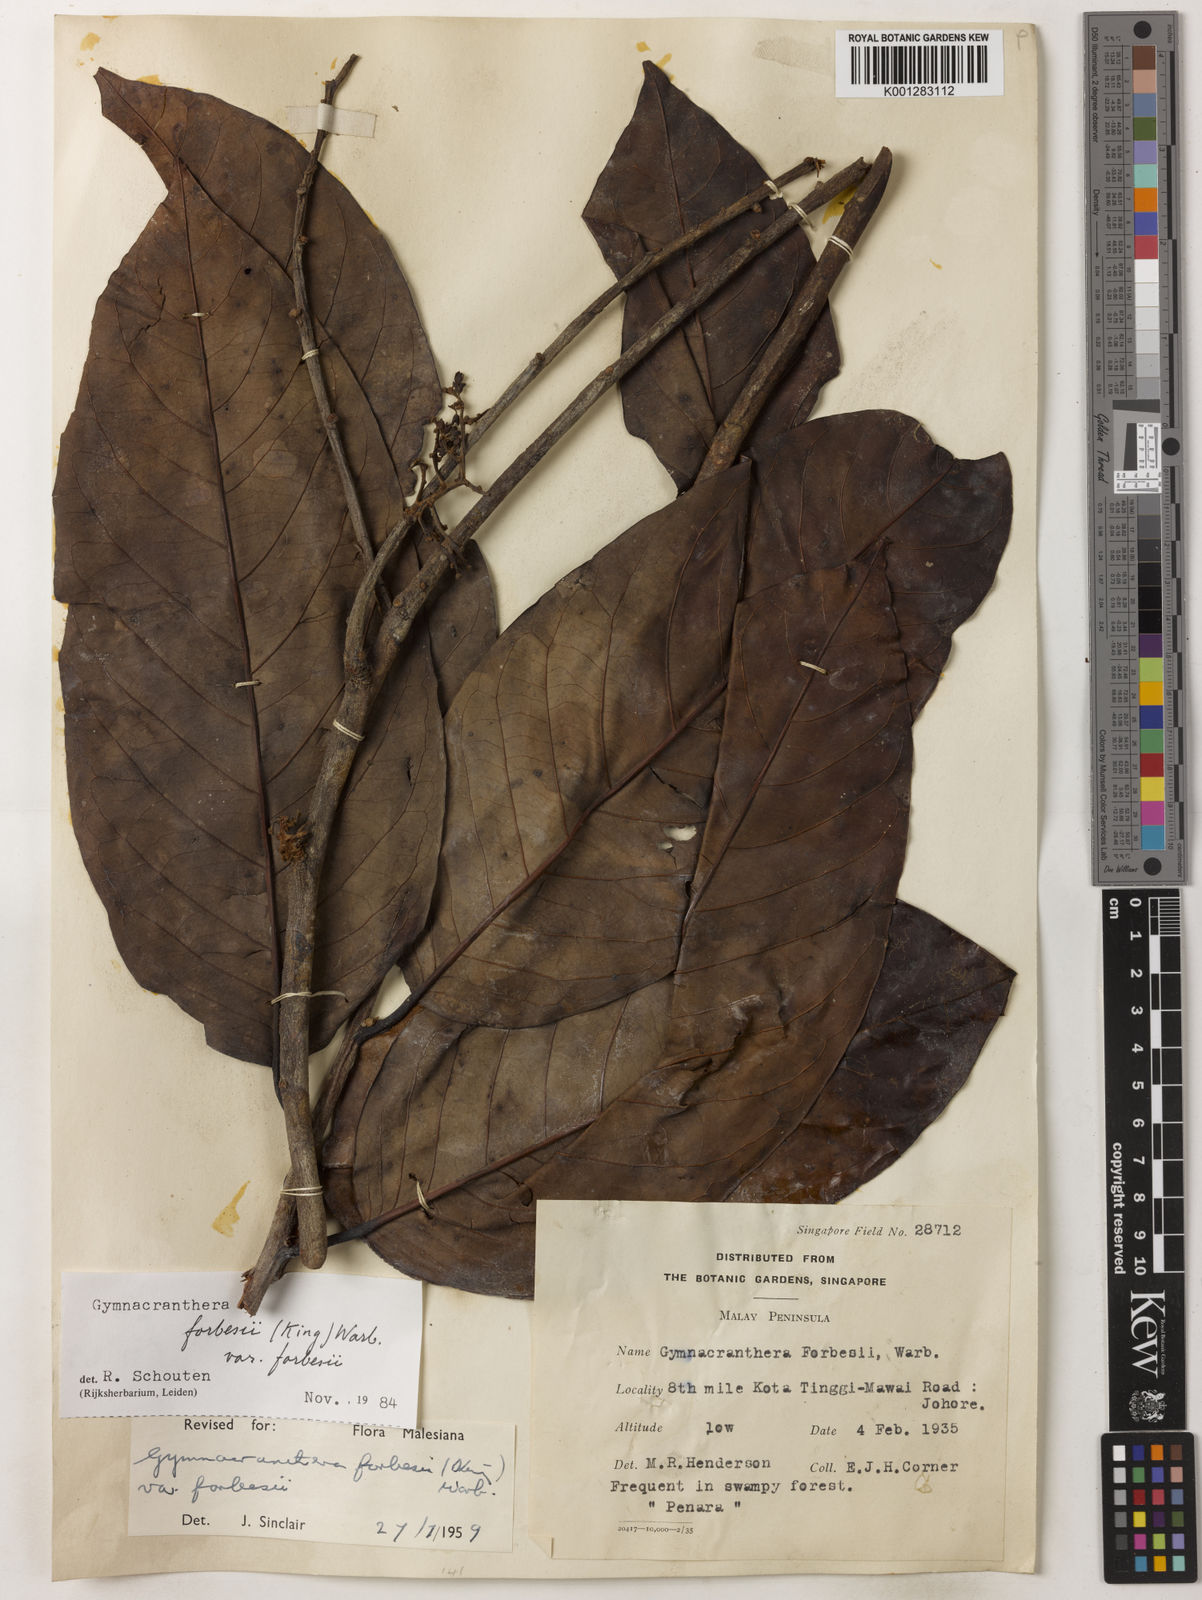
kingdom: Plantae
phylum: Tracheophyta
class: Magnoliopsida
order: Magnoliales
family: Myristicaceae
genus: Gymnacranthera
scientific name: Gymnacranthera forbesii
